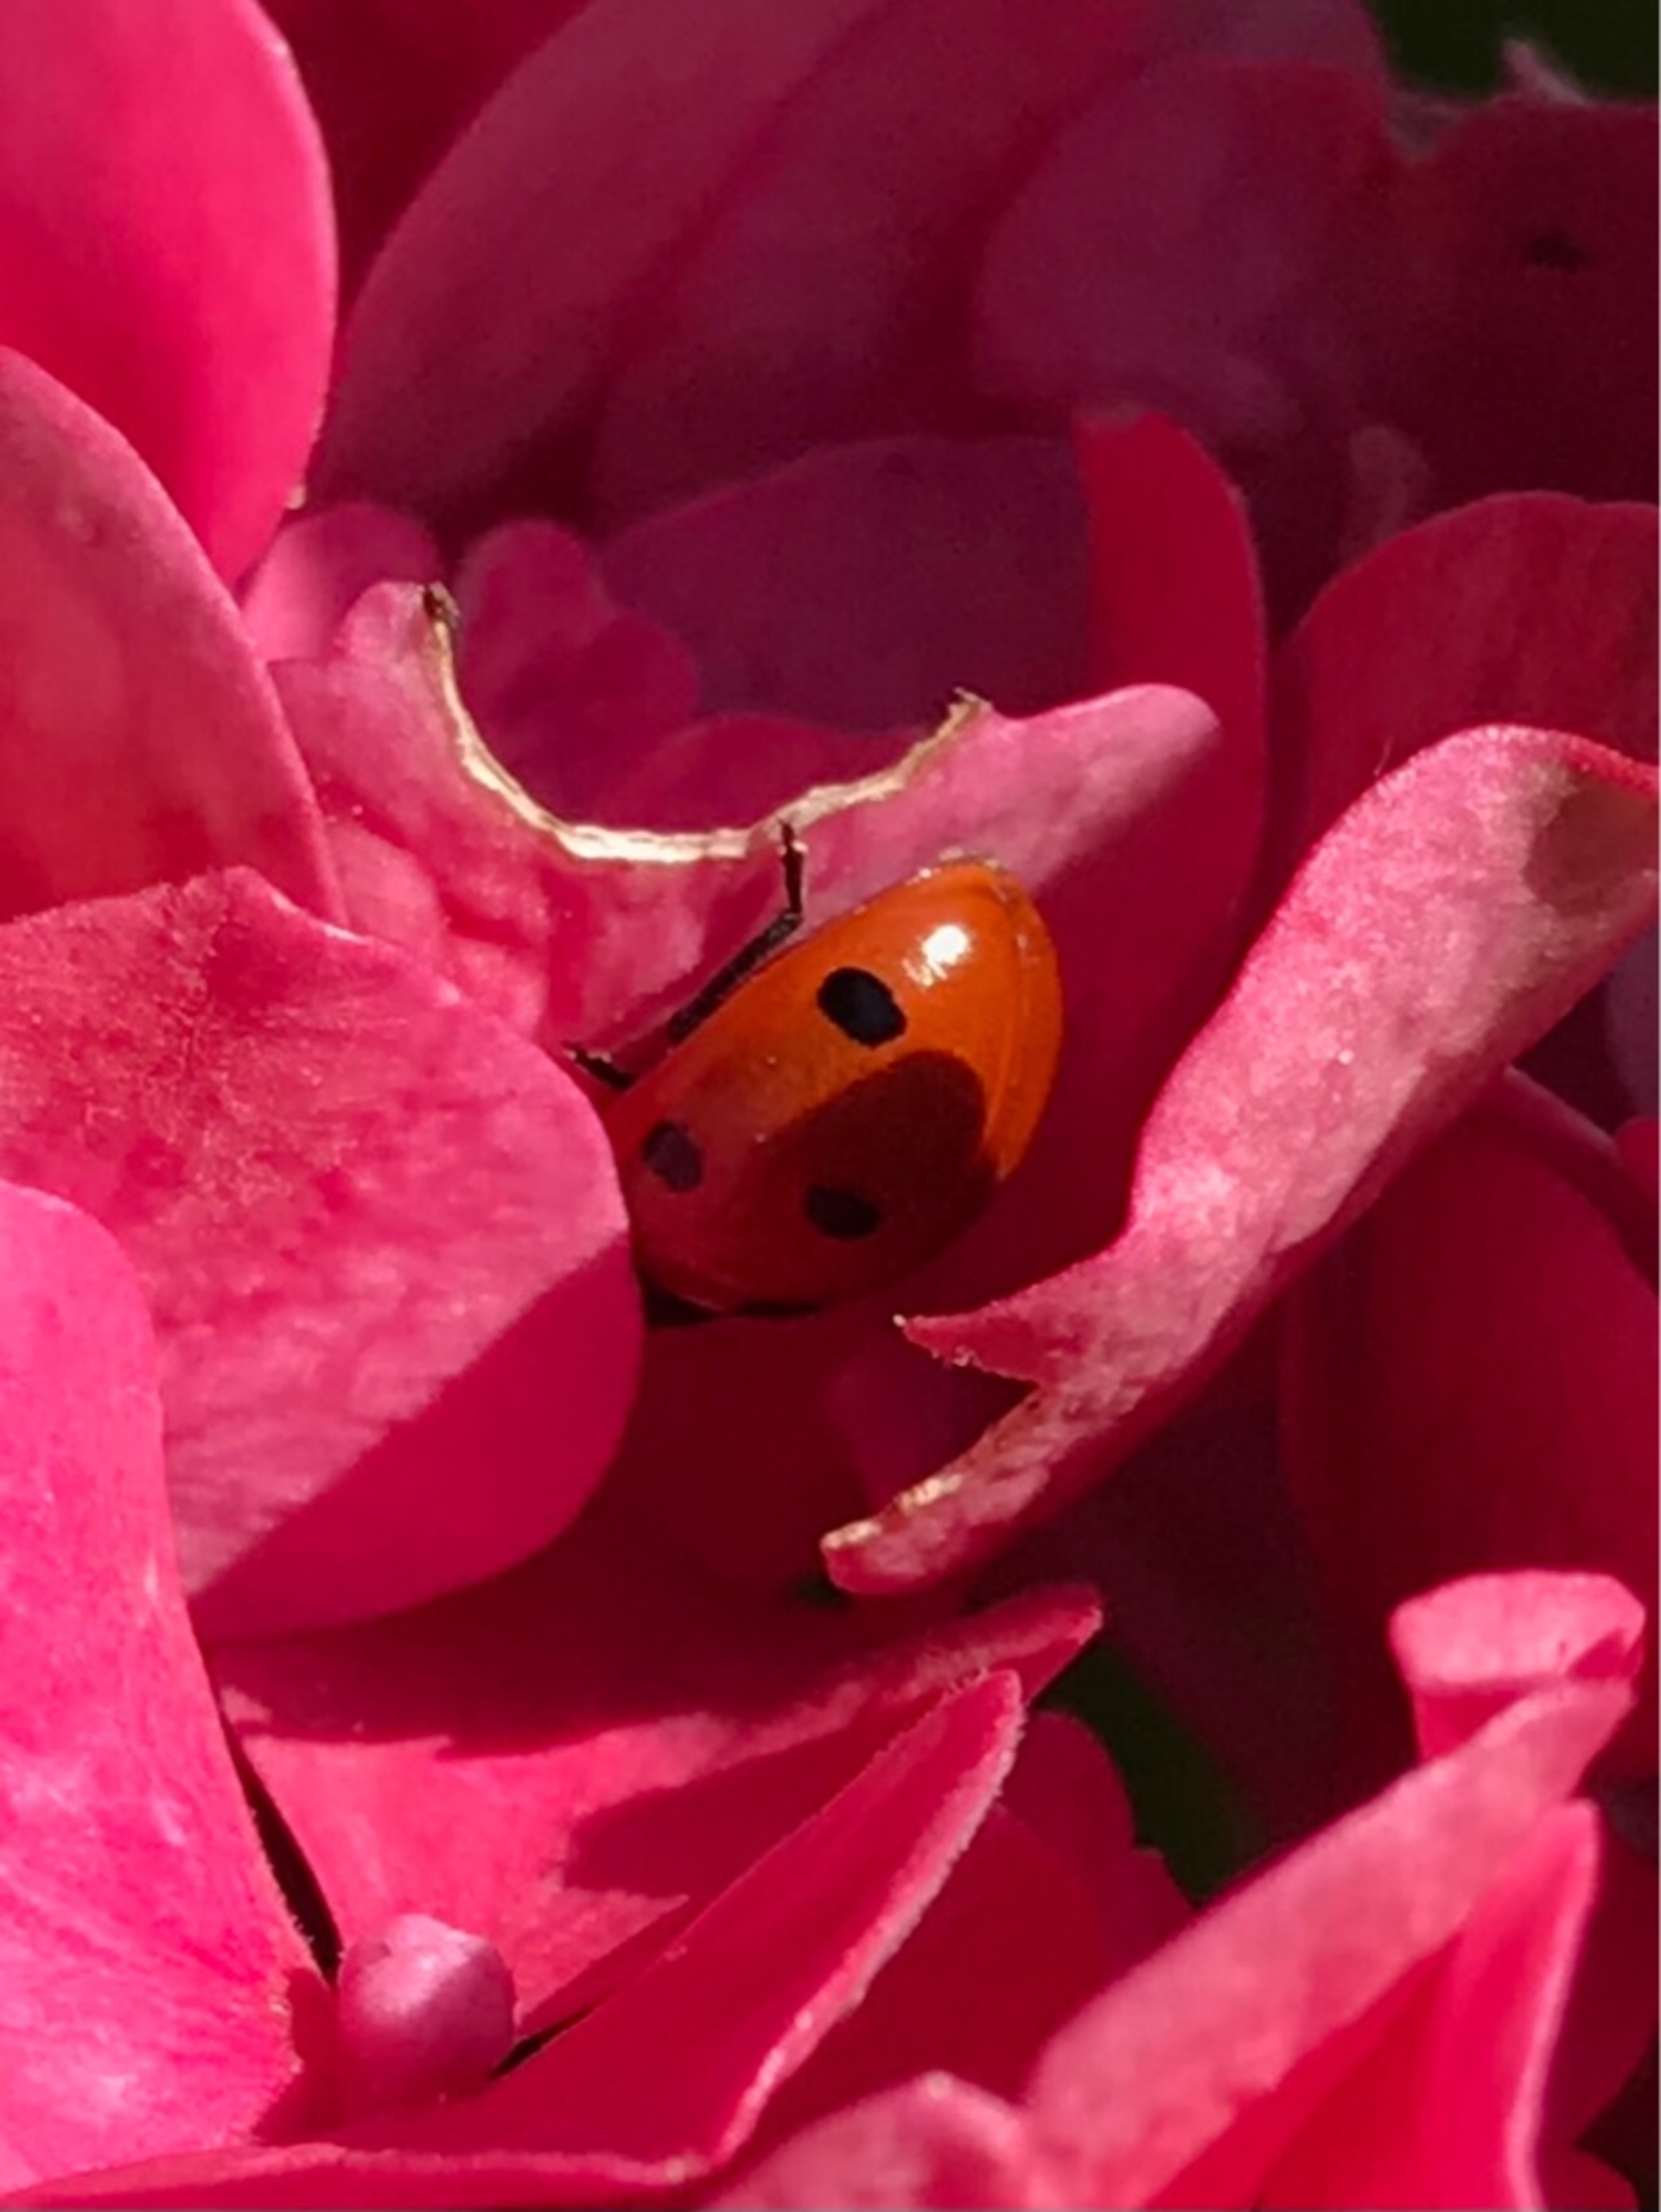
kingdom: Animalia
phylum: Arthropoda
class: Insecta
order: Coleoptera
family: Coccinellidae
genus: Coccinella
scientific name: Coccinella septempunctata
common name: Syvplettet mariehøne
